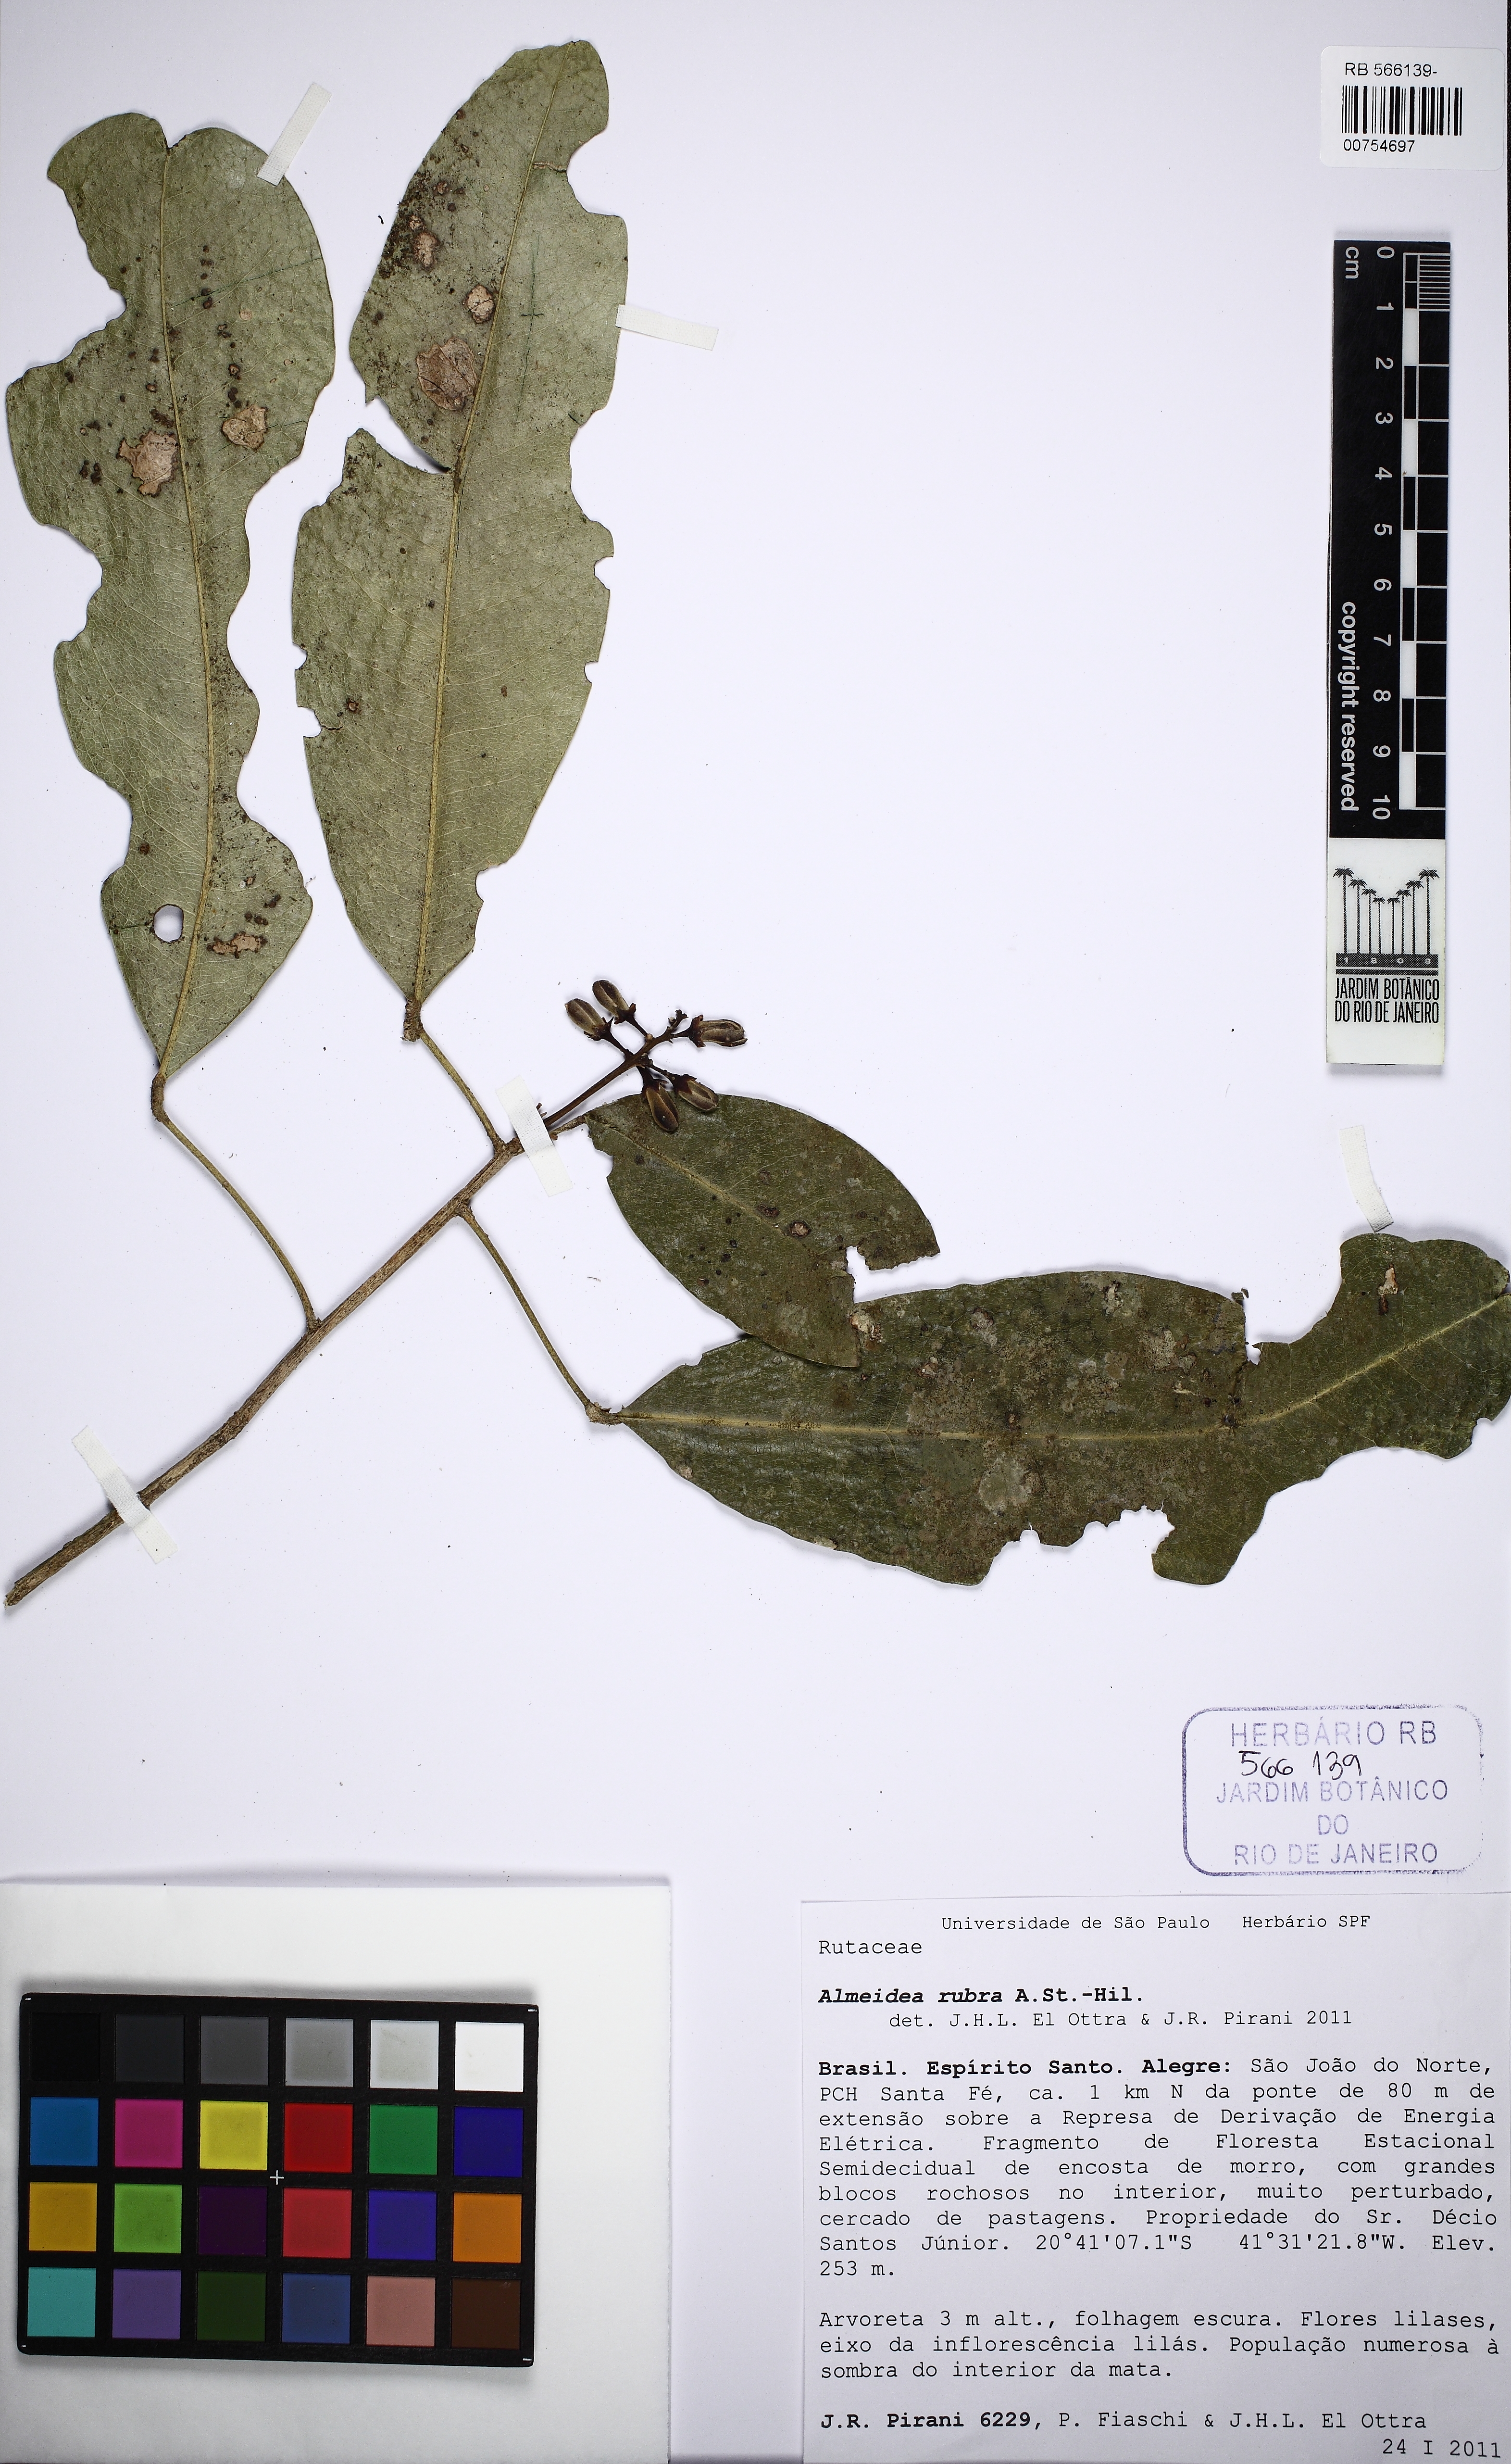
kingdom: Plantae
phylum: Tracheophyta
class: Magnoliopsida
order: Sapindales
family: Rutaceae
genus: Conchocarpus
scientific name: Conchocarpus ruber
